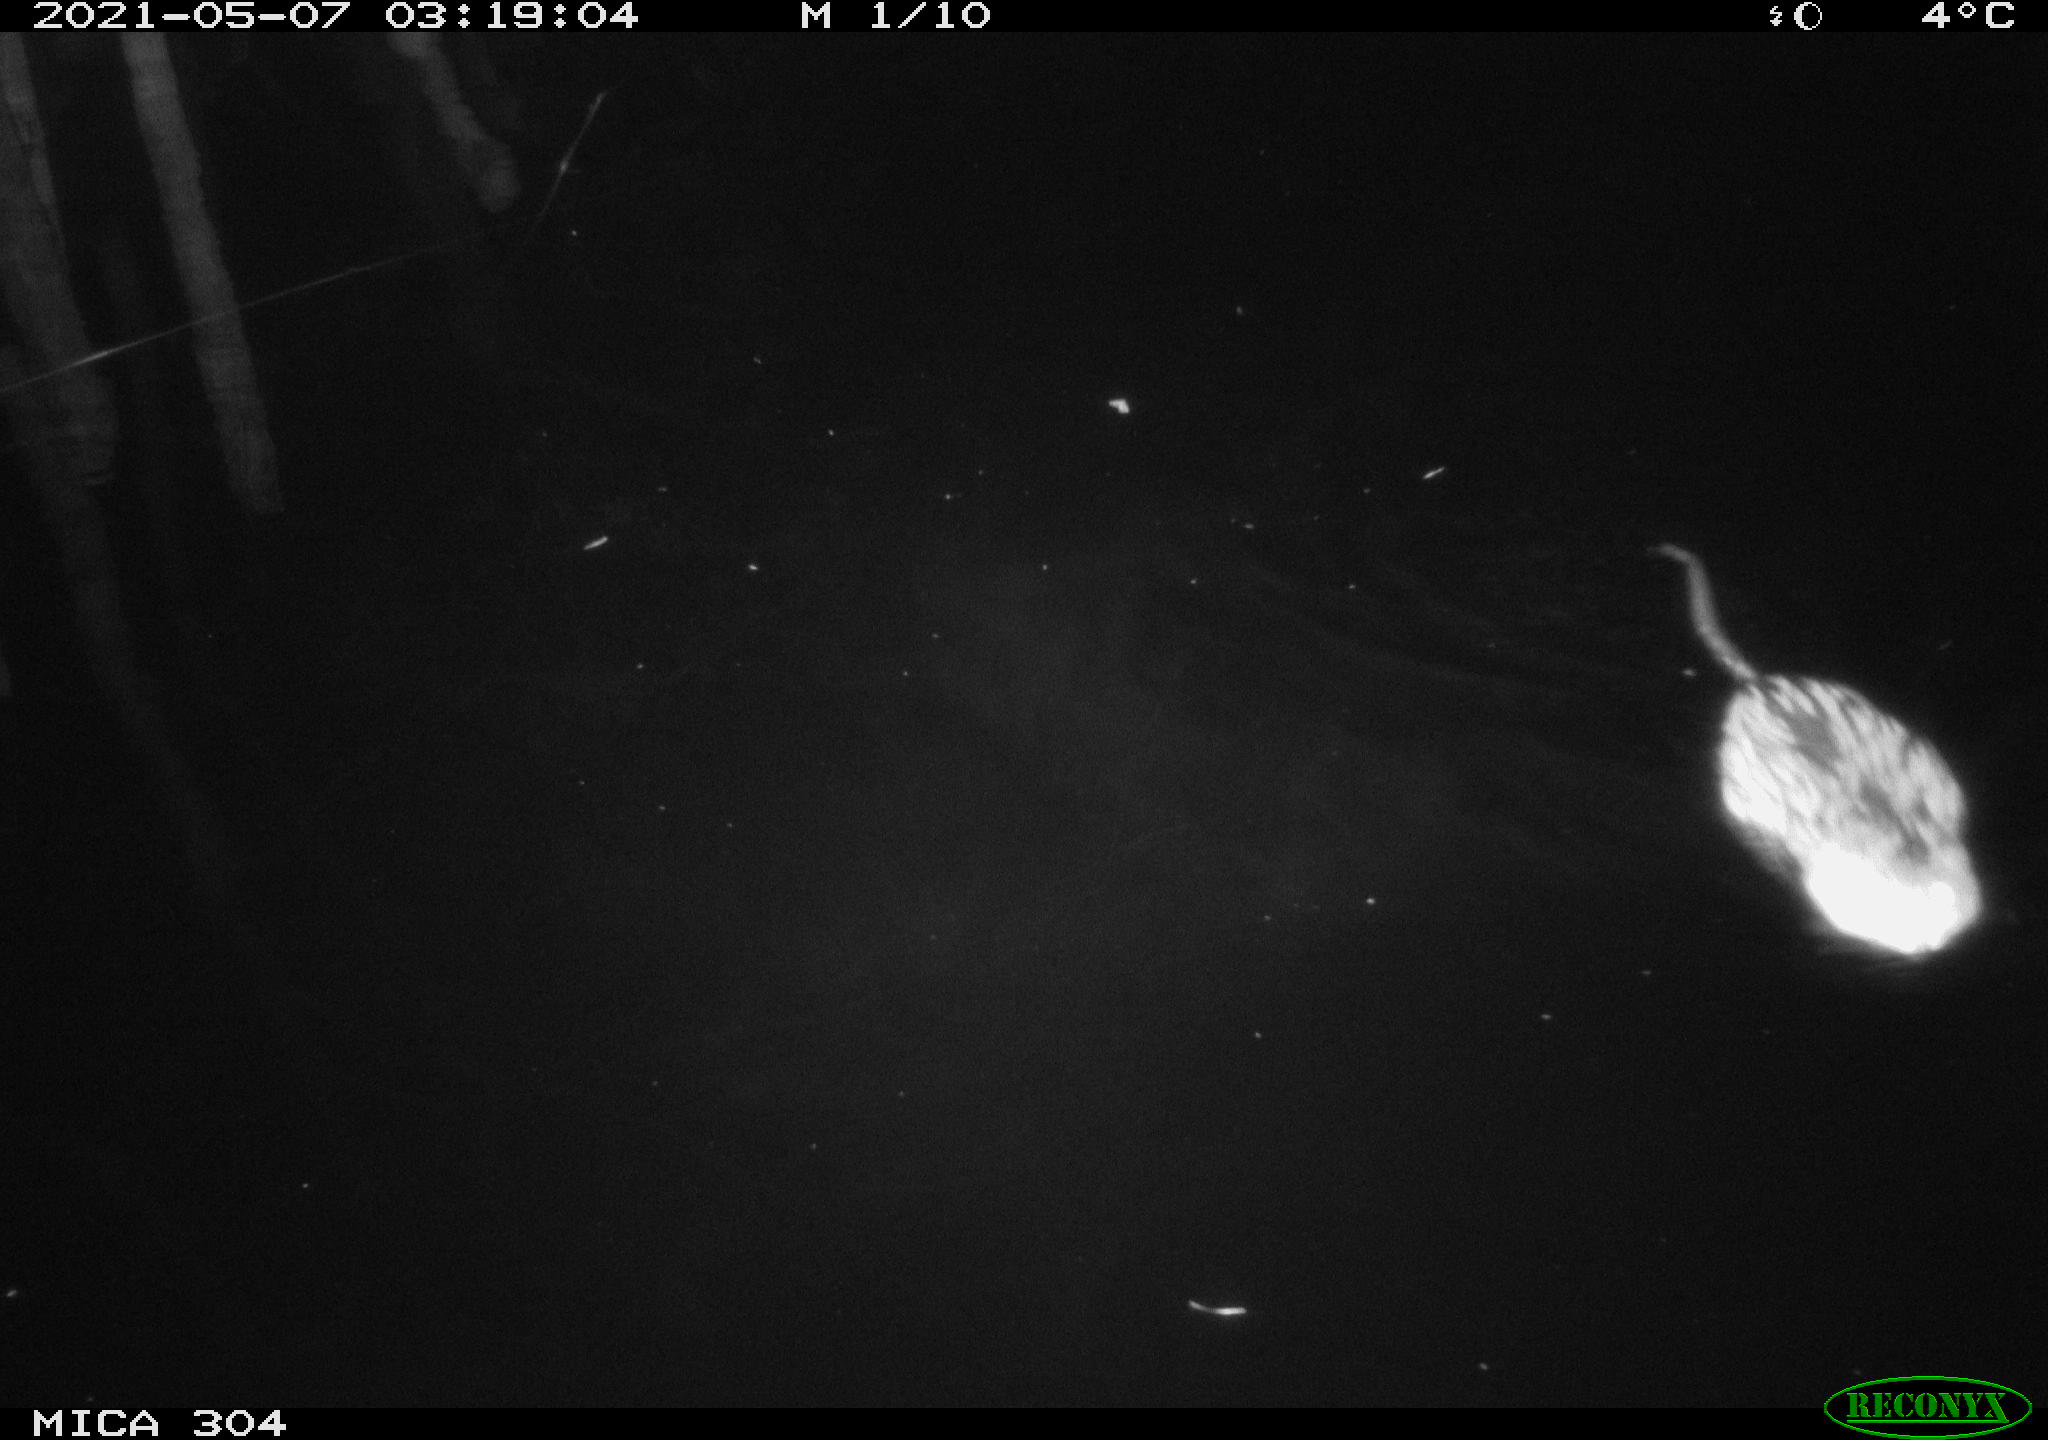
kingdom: Animalia
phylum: Chordata
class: Mammalia
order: Rodentia
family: Cricetidae
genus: Ondatra
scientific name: Ondatra zibethicus
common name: Muskrat
